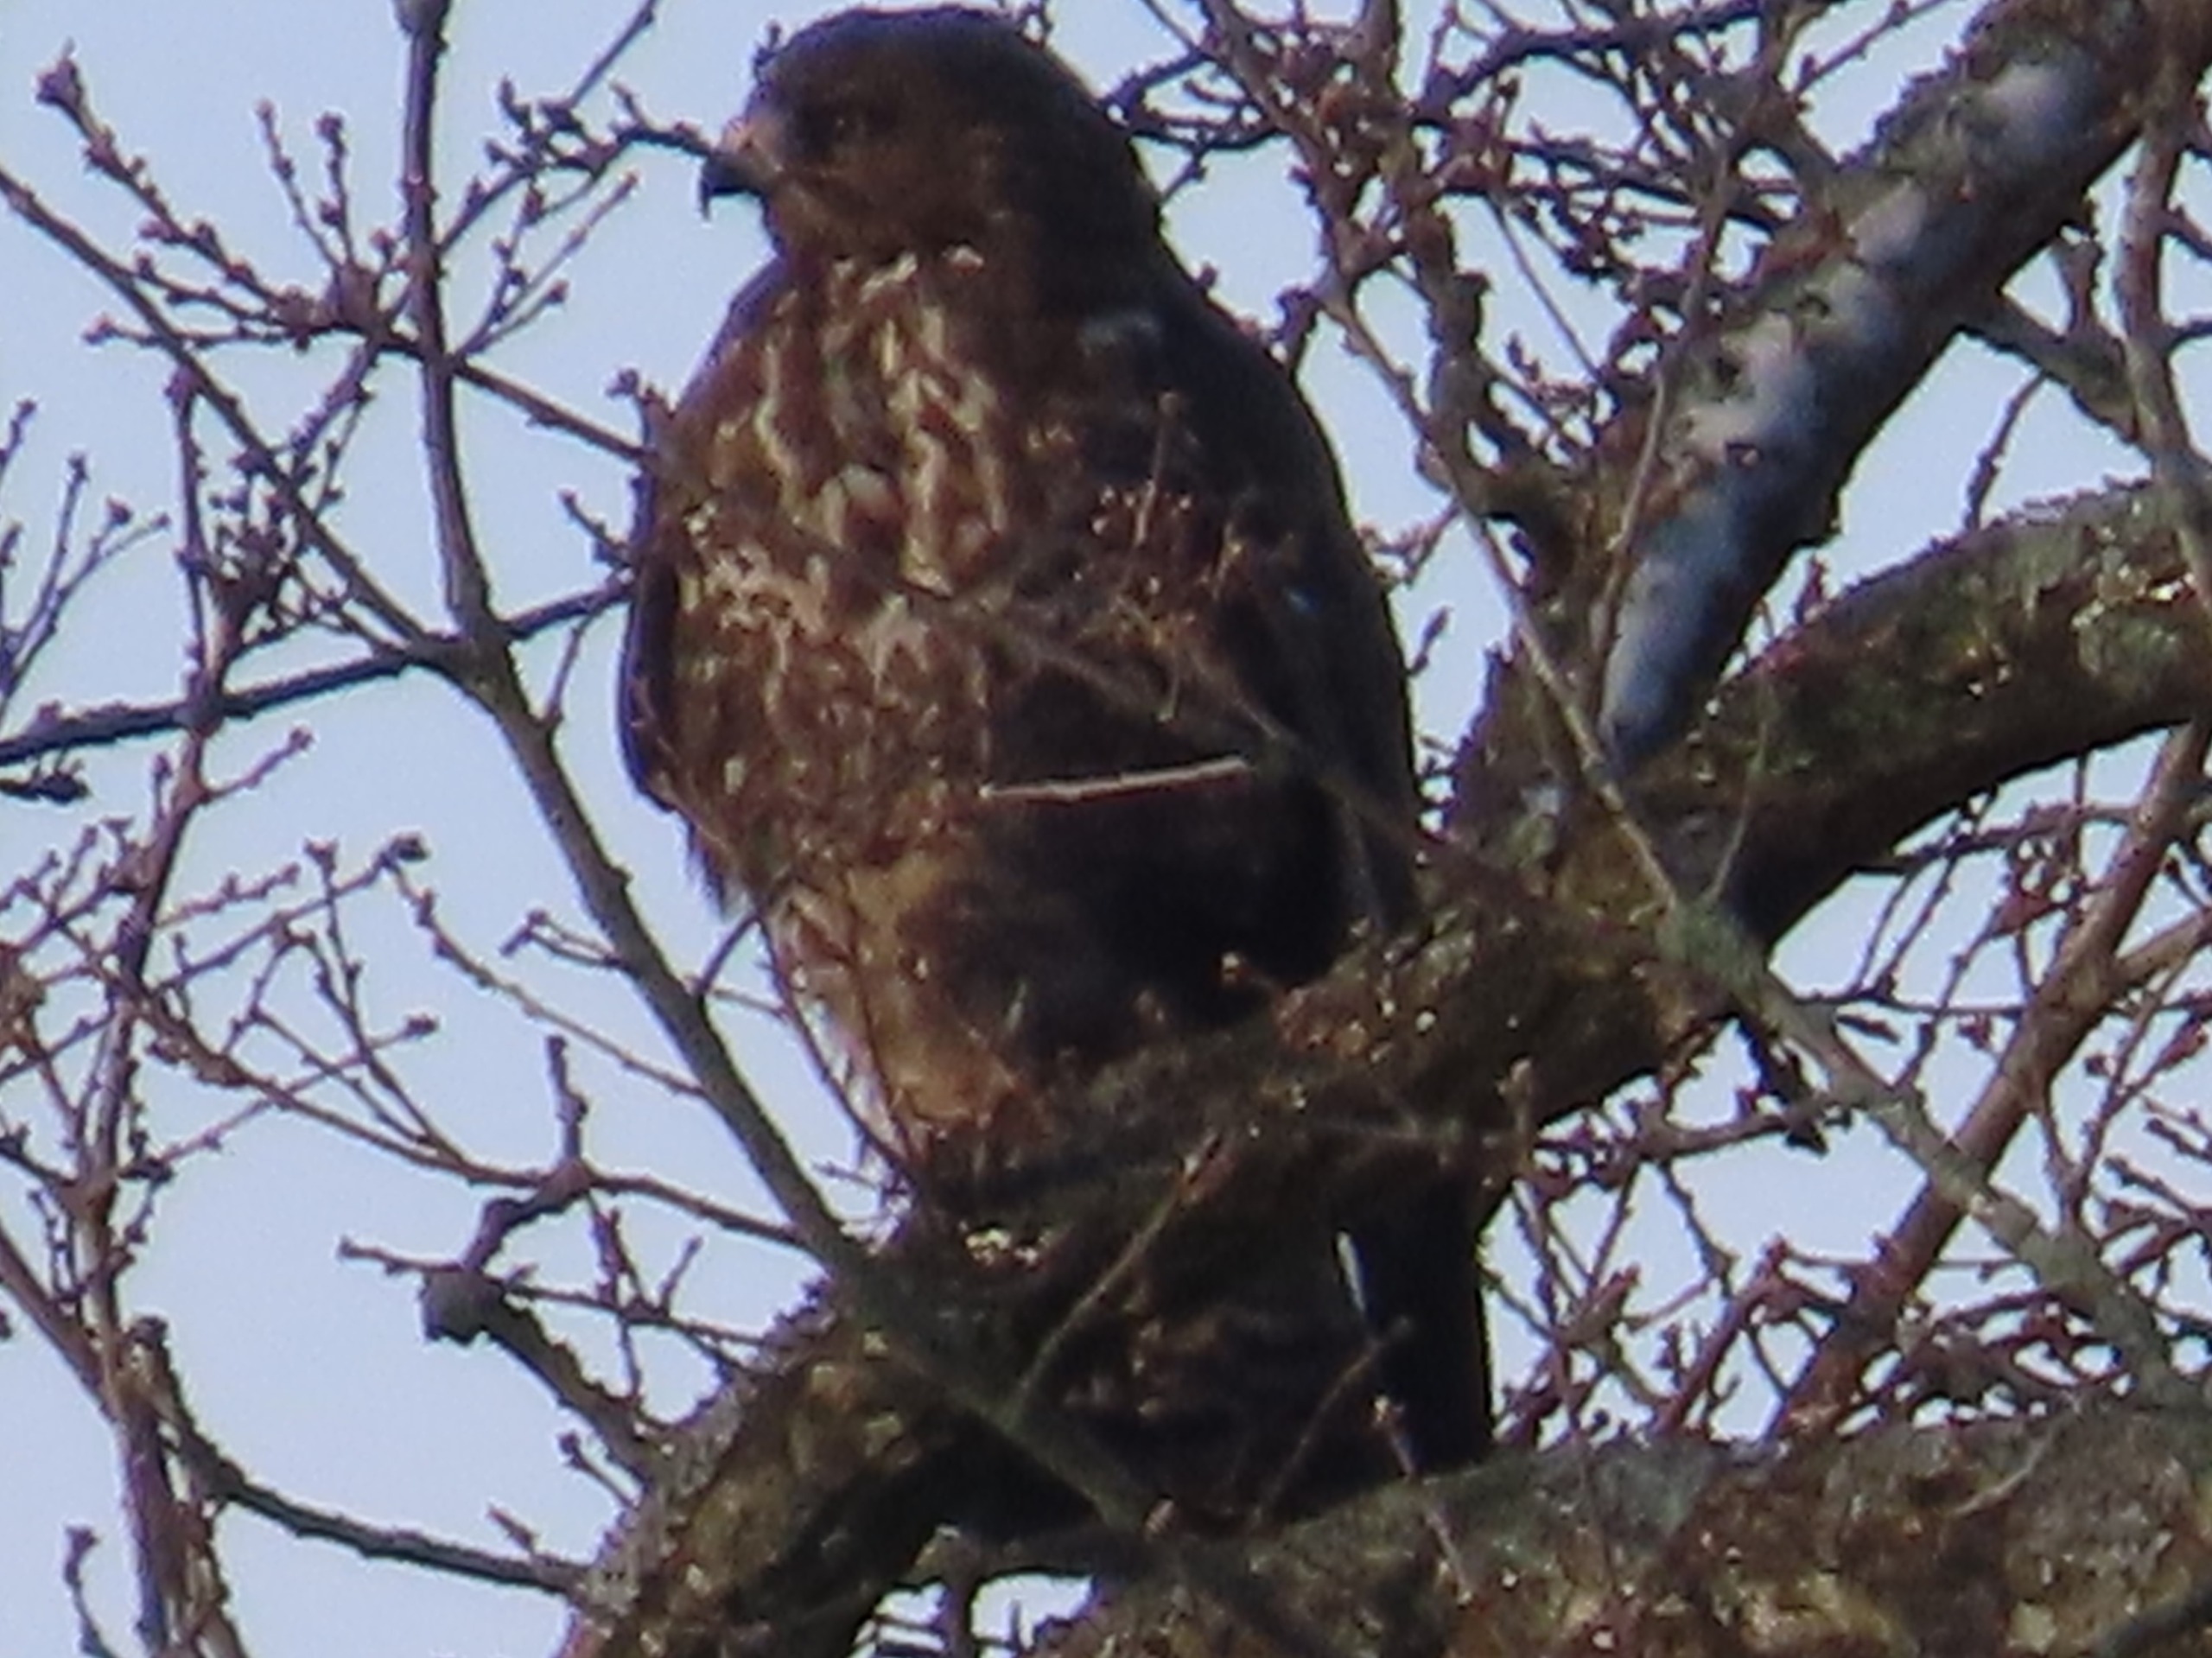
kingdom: Animalia
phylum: Chordata
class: Aves
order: Accipitriformes
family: Accipitridae
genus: Buteo
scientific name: Buteo buteo
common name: Musvåge
